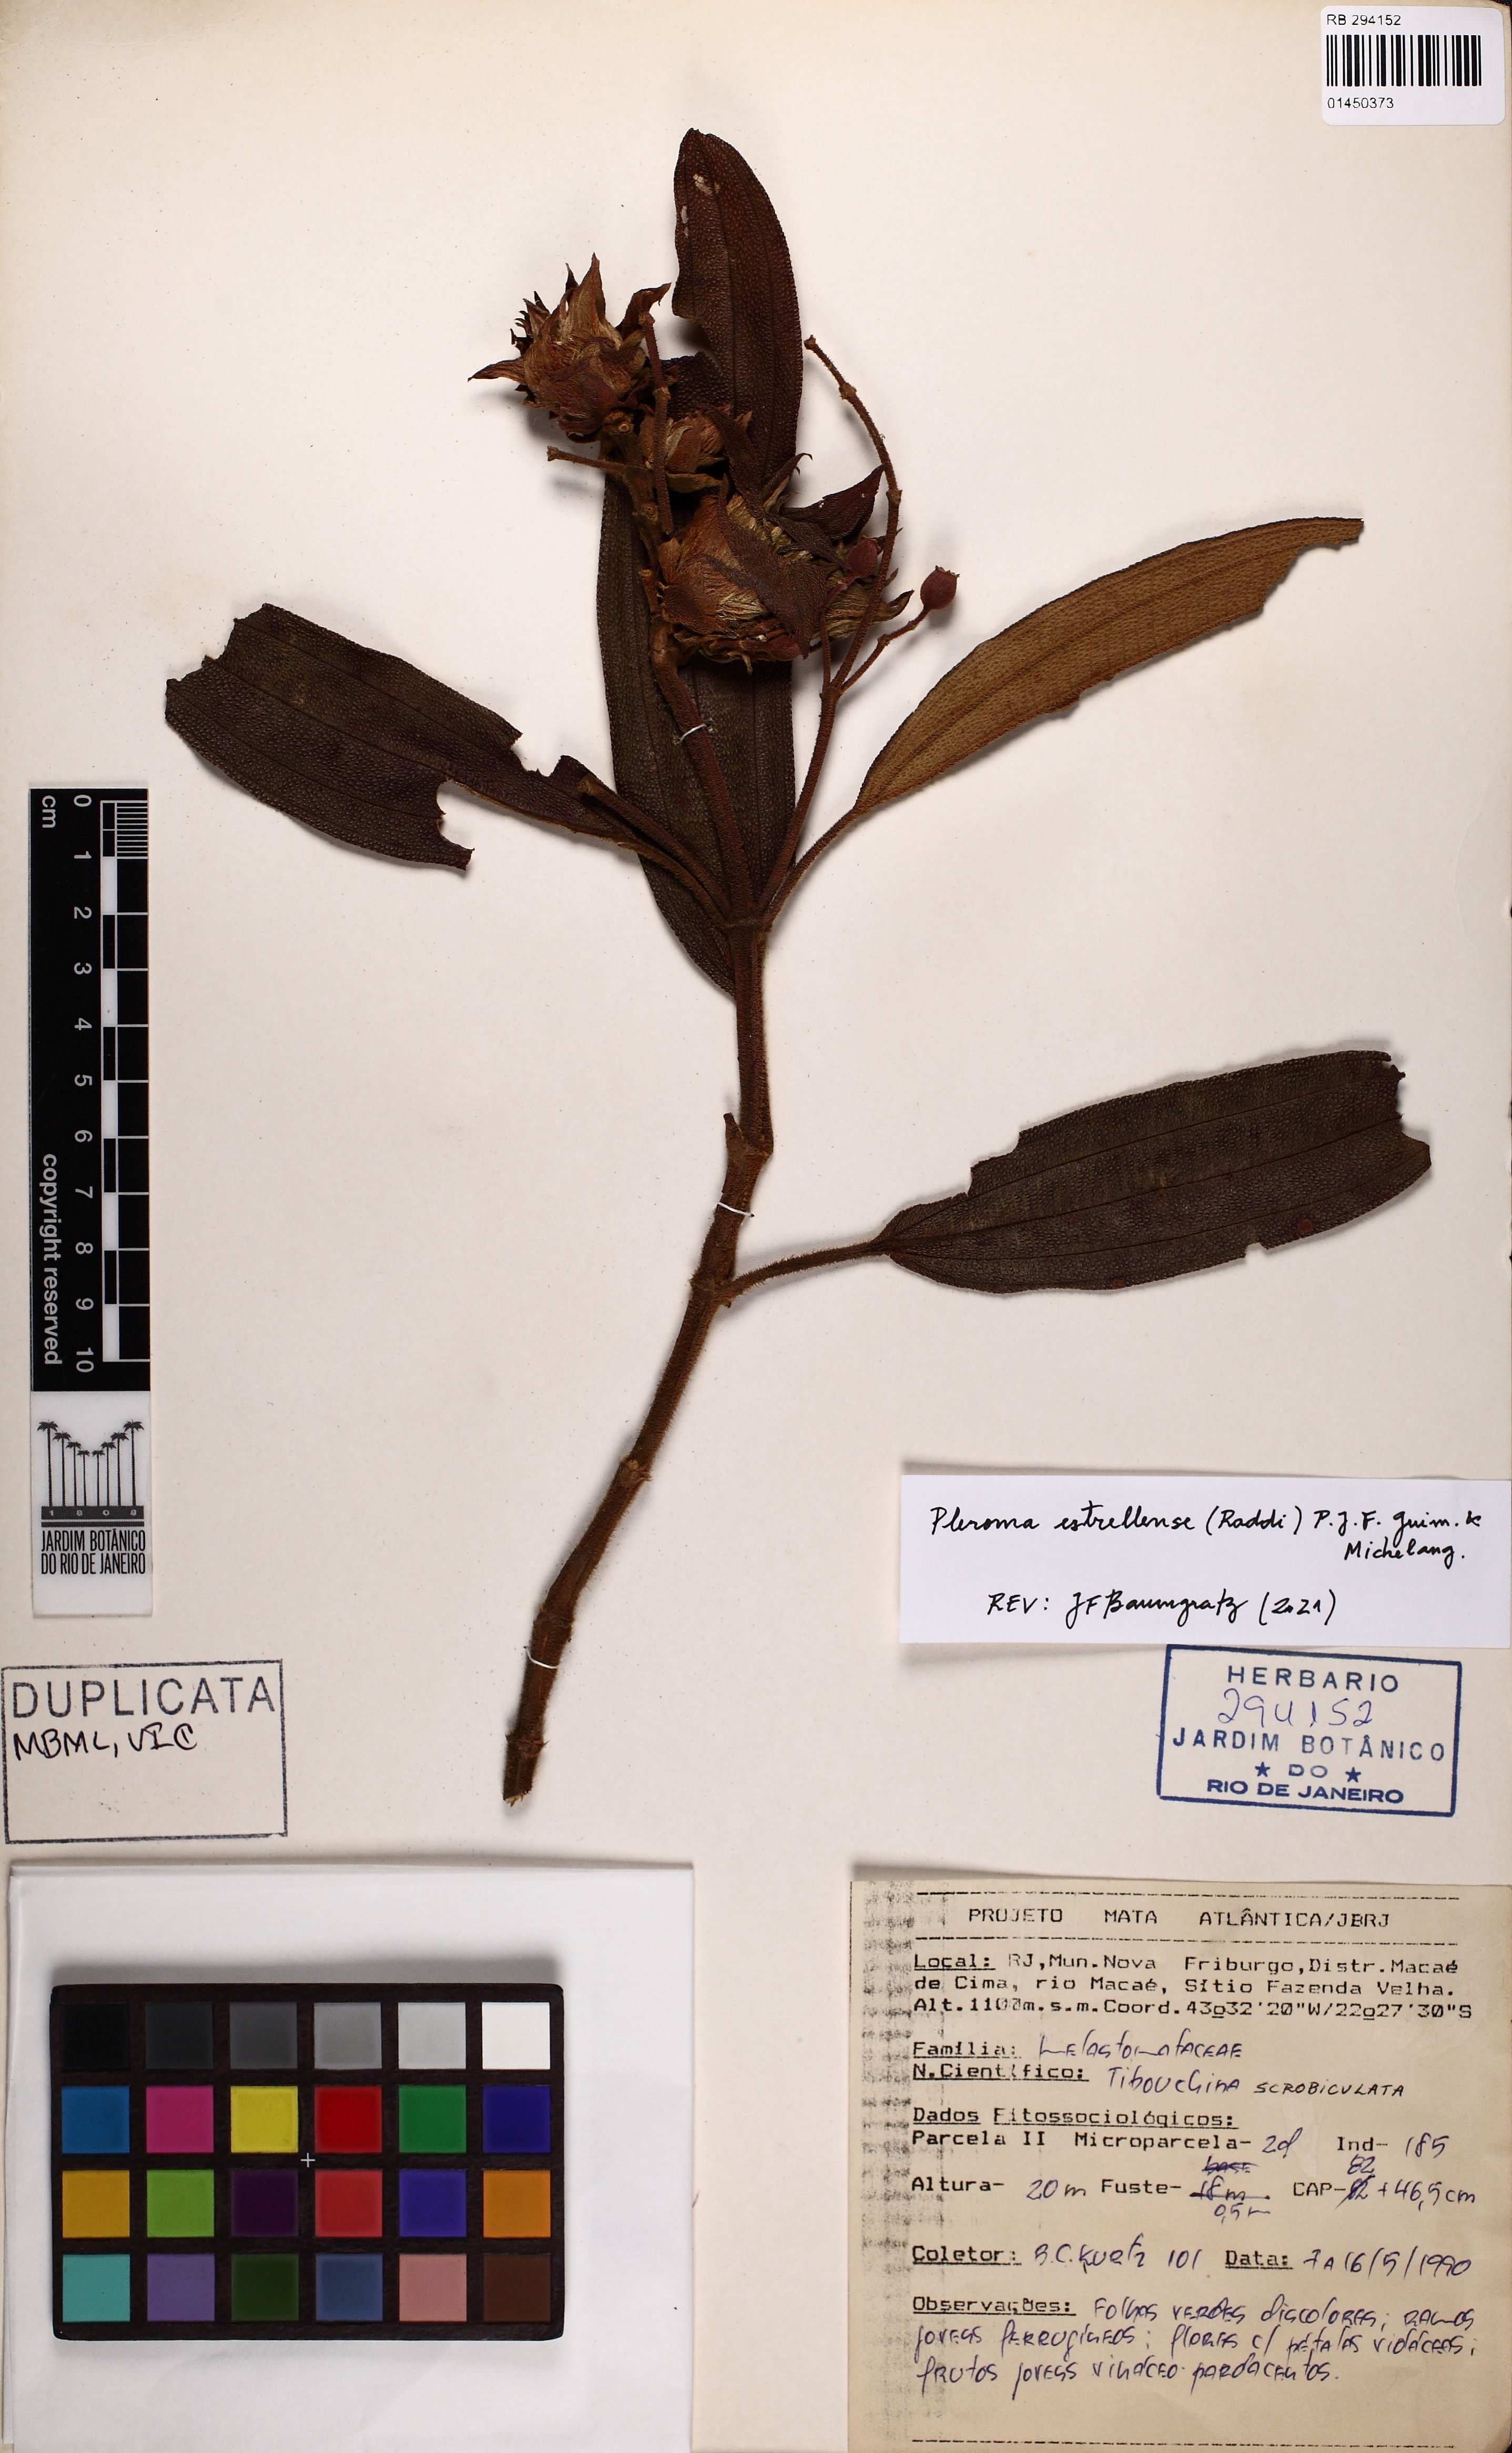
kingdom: Plantae
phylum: Tracheophyta
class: Magnoliopsida
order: Myrtales
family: Melastomataceae
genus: Pleroma
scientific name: Pleroma estrellense
